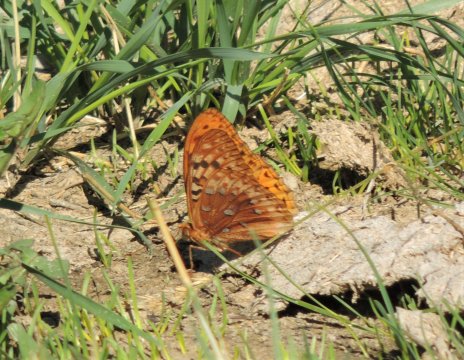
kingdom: Animalia
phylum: Arthropoda
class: Insecta
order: Lepidoptera
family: Nymphalidae
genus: Speyeria
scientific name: Speyeria cybele
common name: Great Spangled Fritillary
